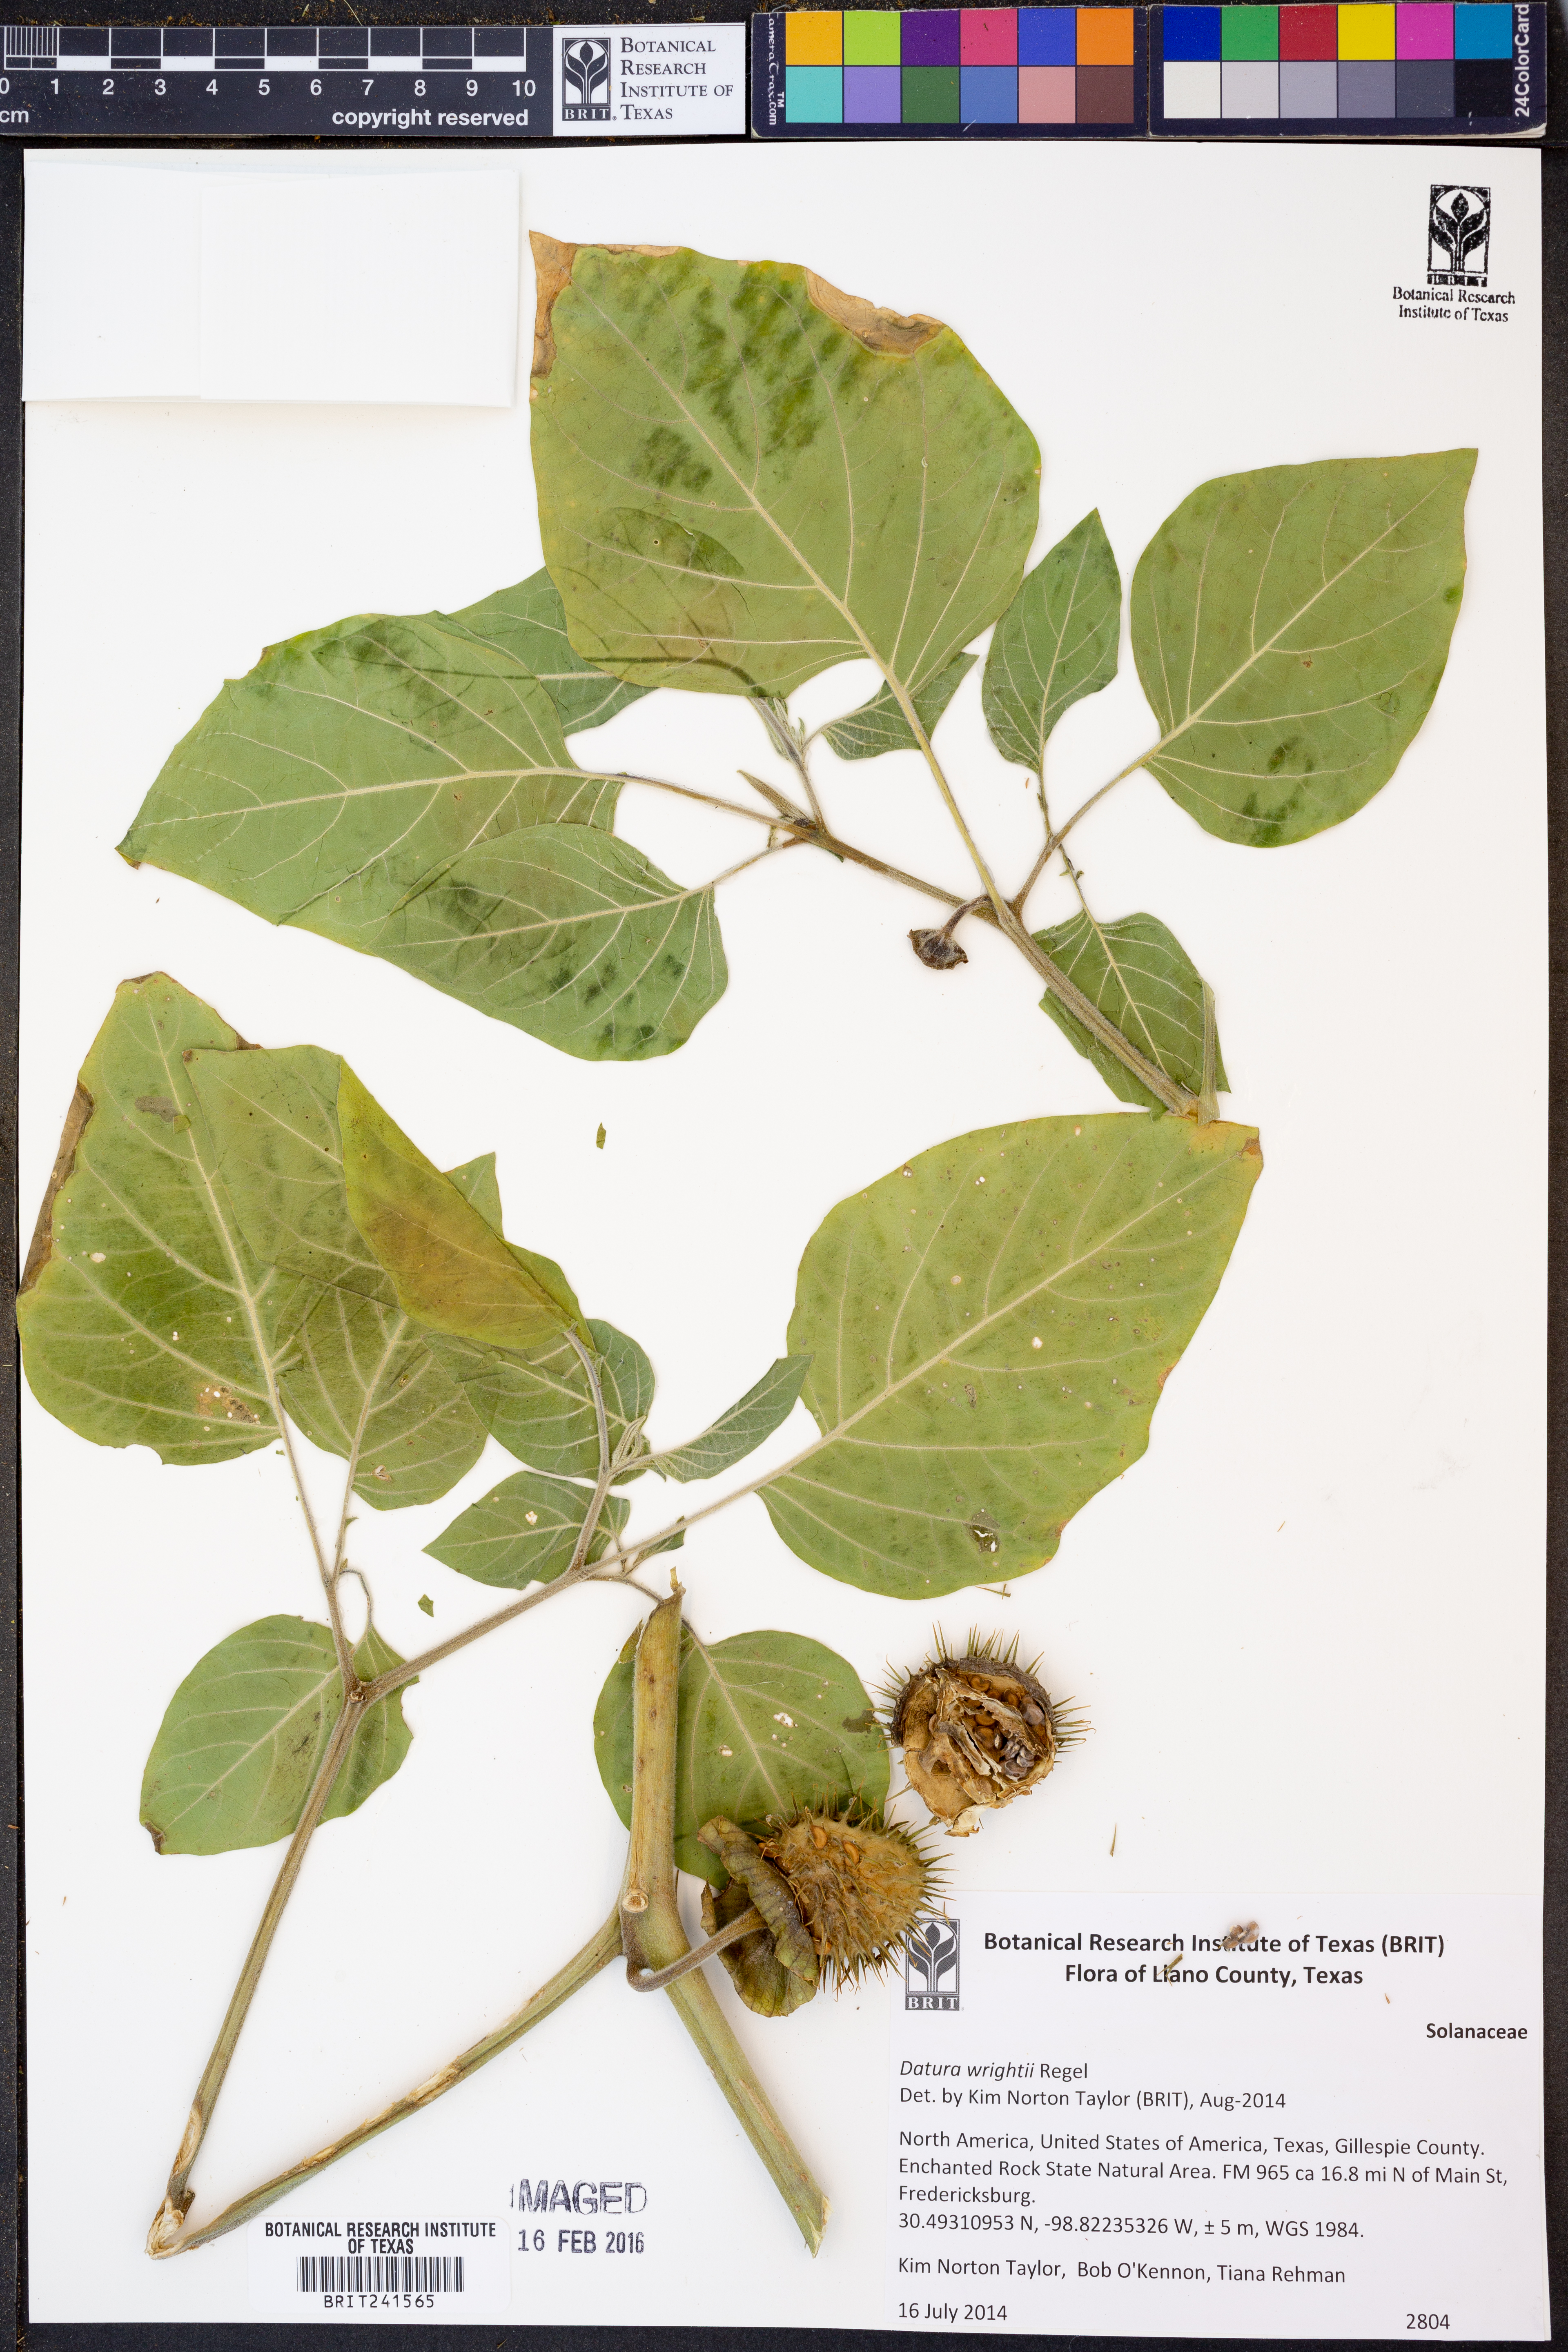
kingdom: Plantae
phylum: Tracheophyta
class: Magnoliopsida
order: Solanales
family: Solanaceae
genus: Datura
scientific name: Datura wrightii
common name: Sacred thorn-apple
